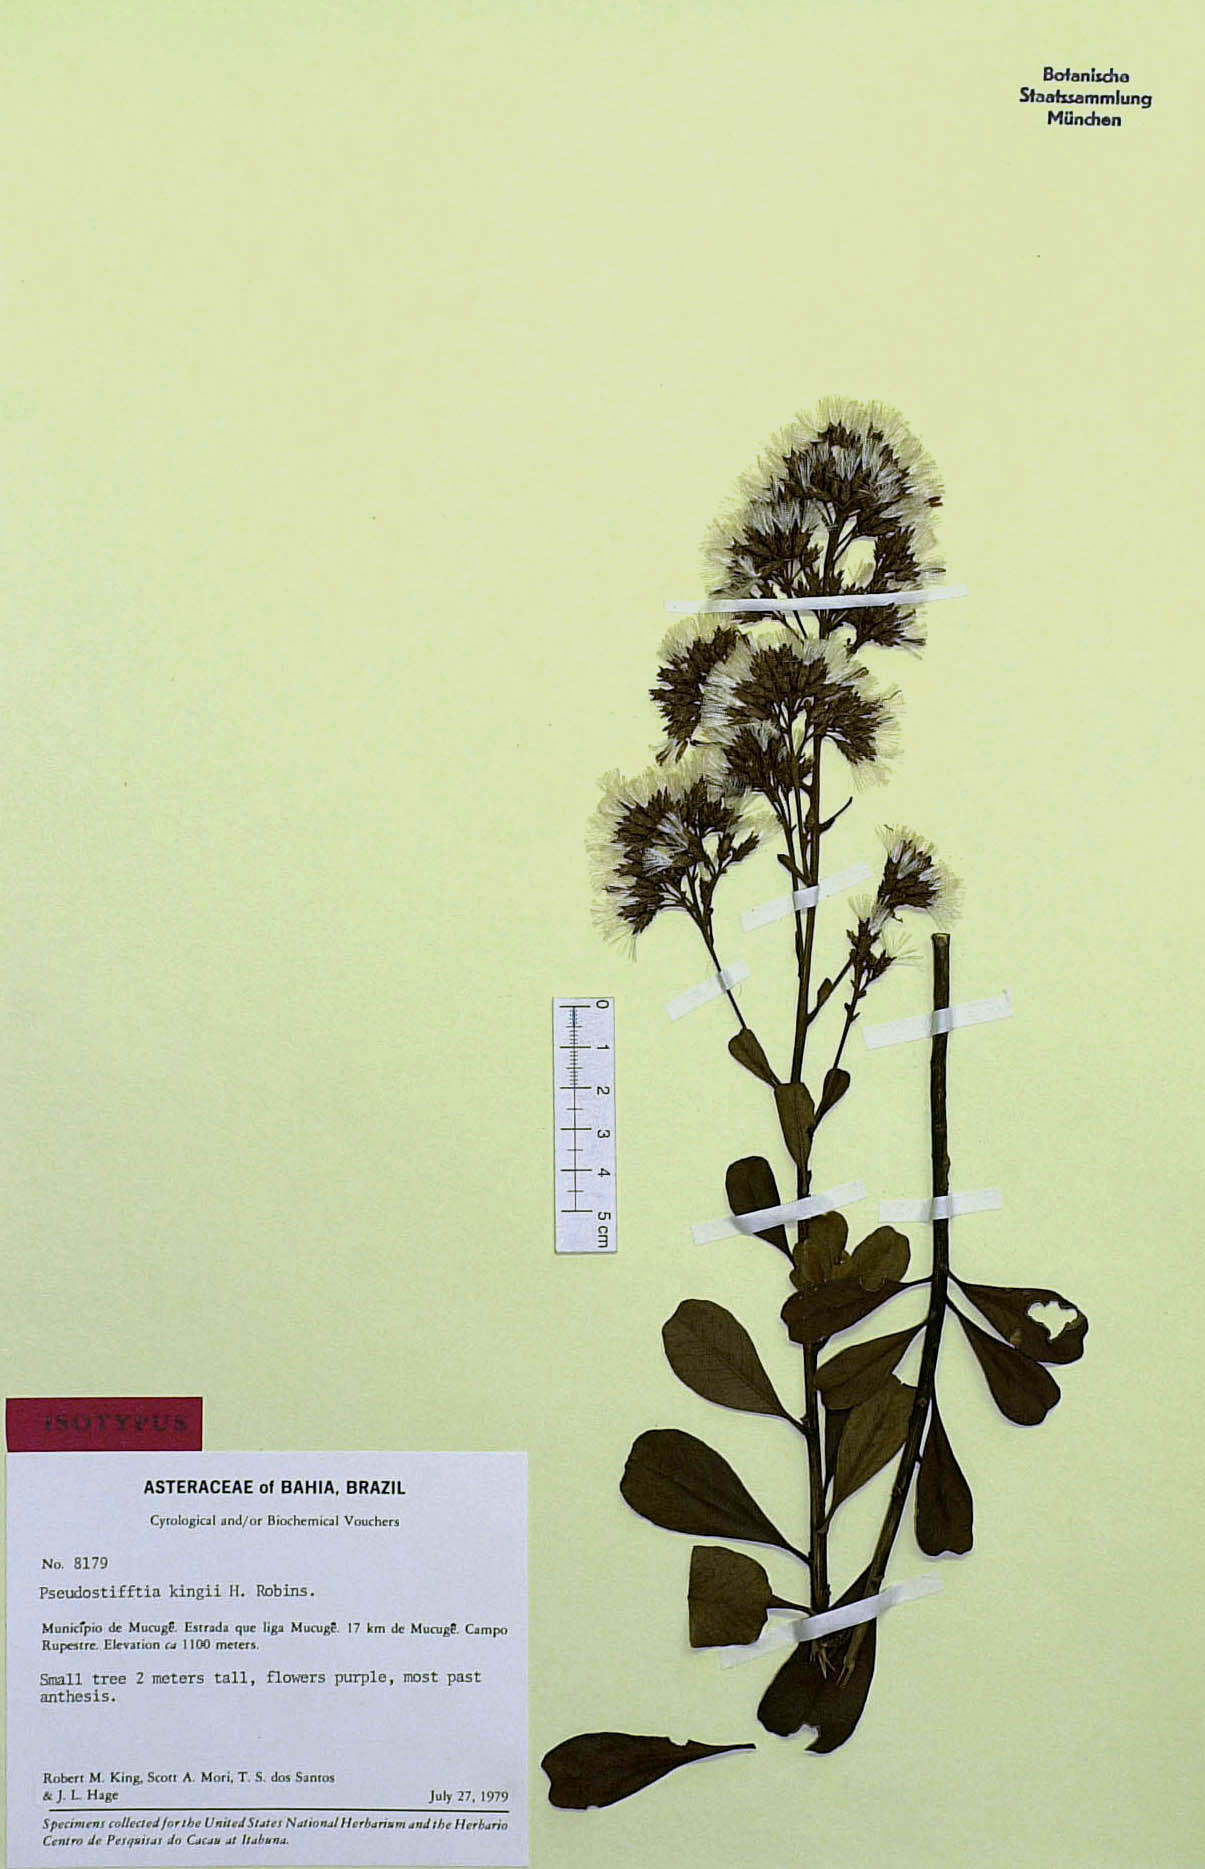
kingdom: Plantae
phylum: Tracheophyta
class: Magnoliopsida
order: Asterales
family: Asteraceae
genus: Pseudostifftia
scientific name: Pseudostifftia kingii
